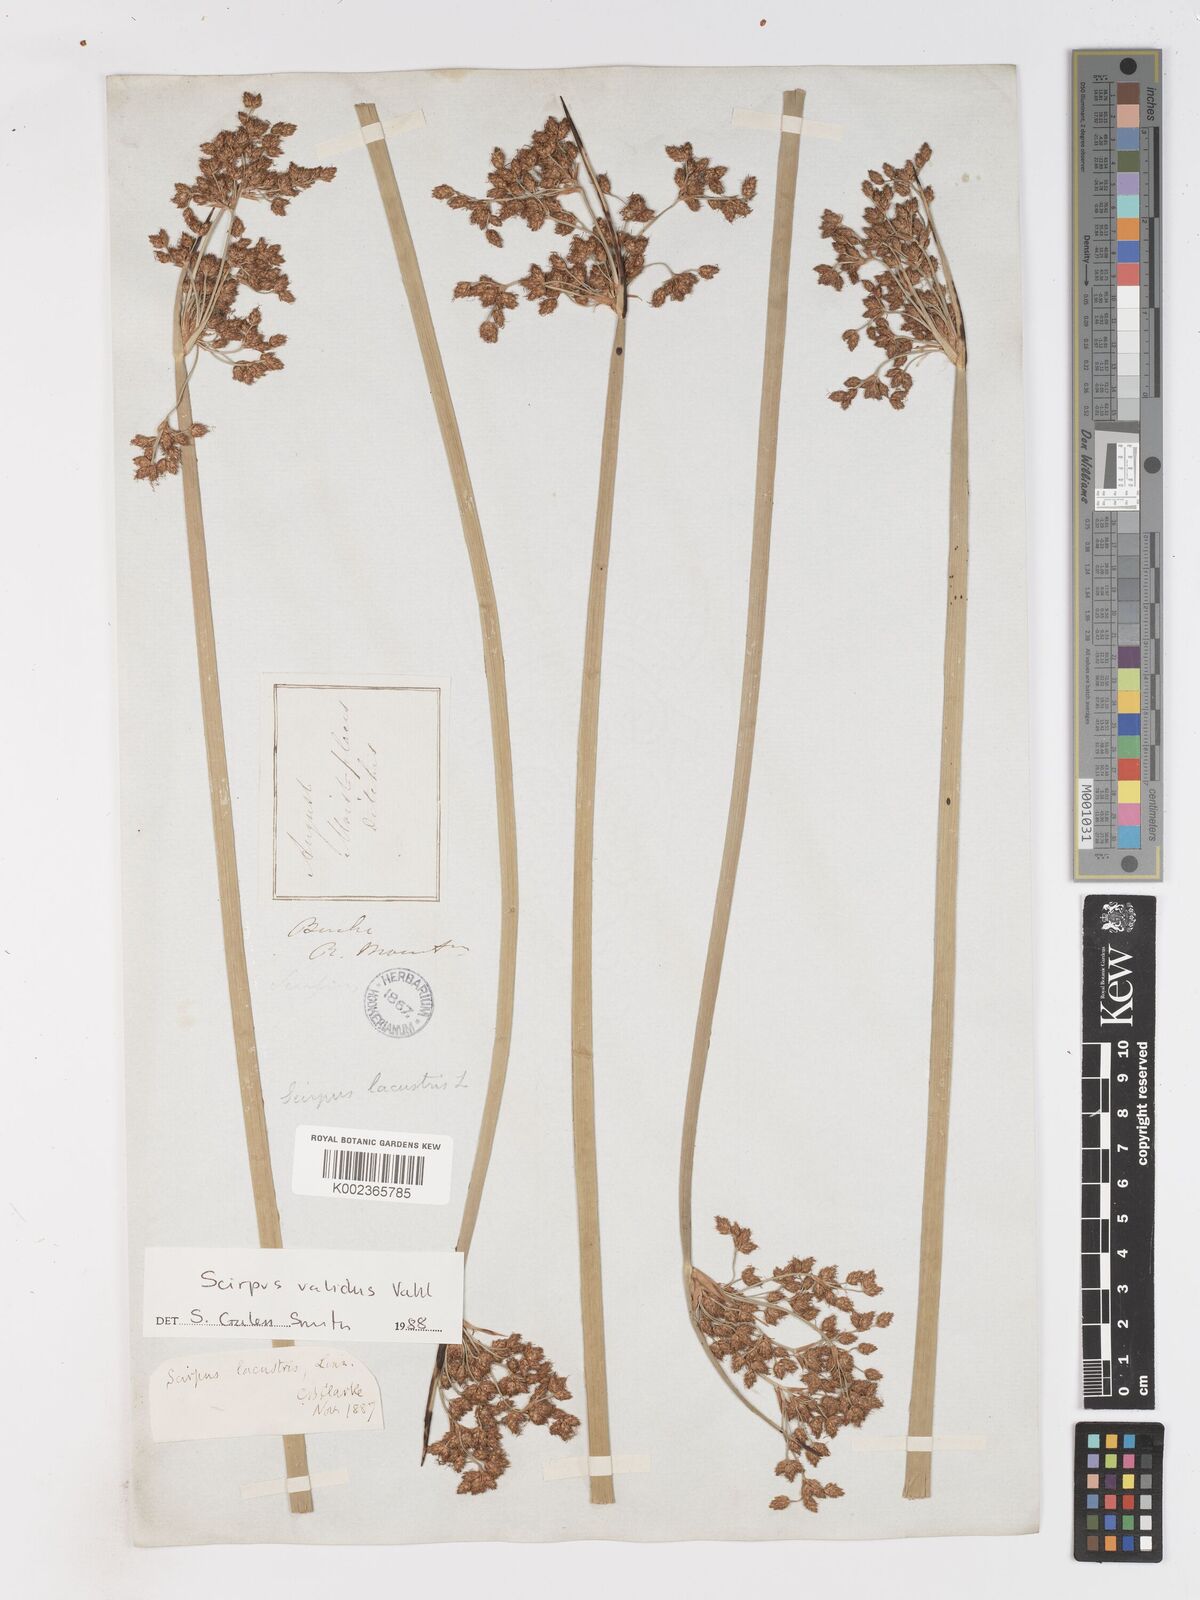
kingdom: Plantae
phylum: Tracheophyta
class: Liliopsida
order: Poales
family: Cyperaceae
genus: Schoenoplectus
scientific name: Schoenoplectus tabernaemontani
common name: Grey club-rush
